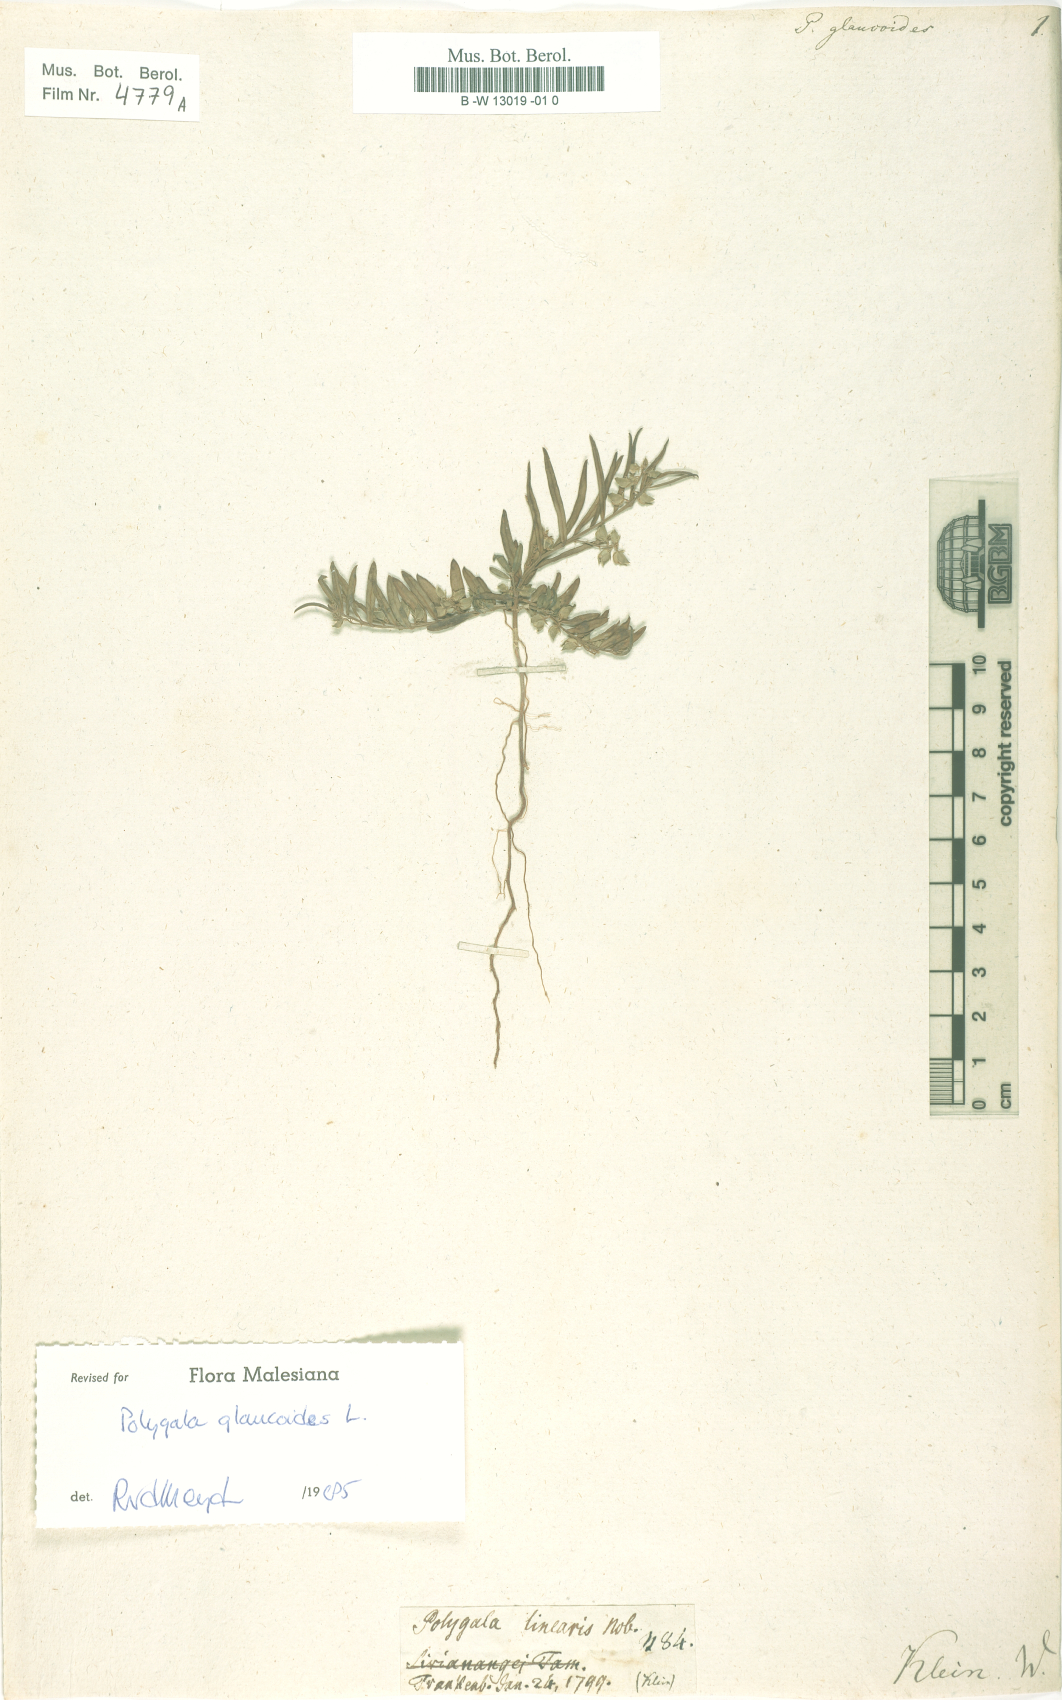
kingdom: Plantae
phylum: Tracheophyta
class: Magnoliopsida
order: Fabales
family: Polygalaceae
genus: Polygala
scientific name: Polygala glaucoides
